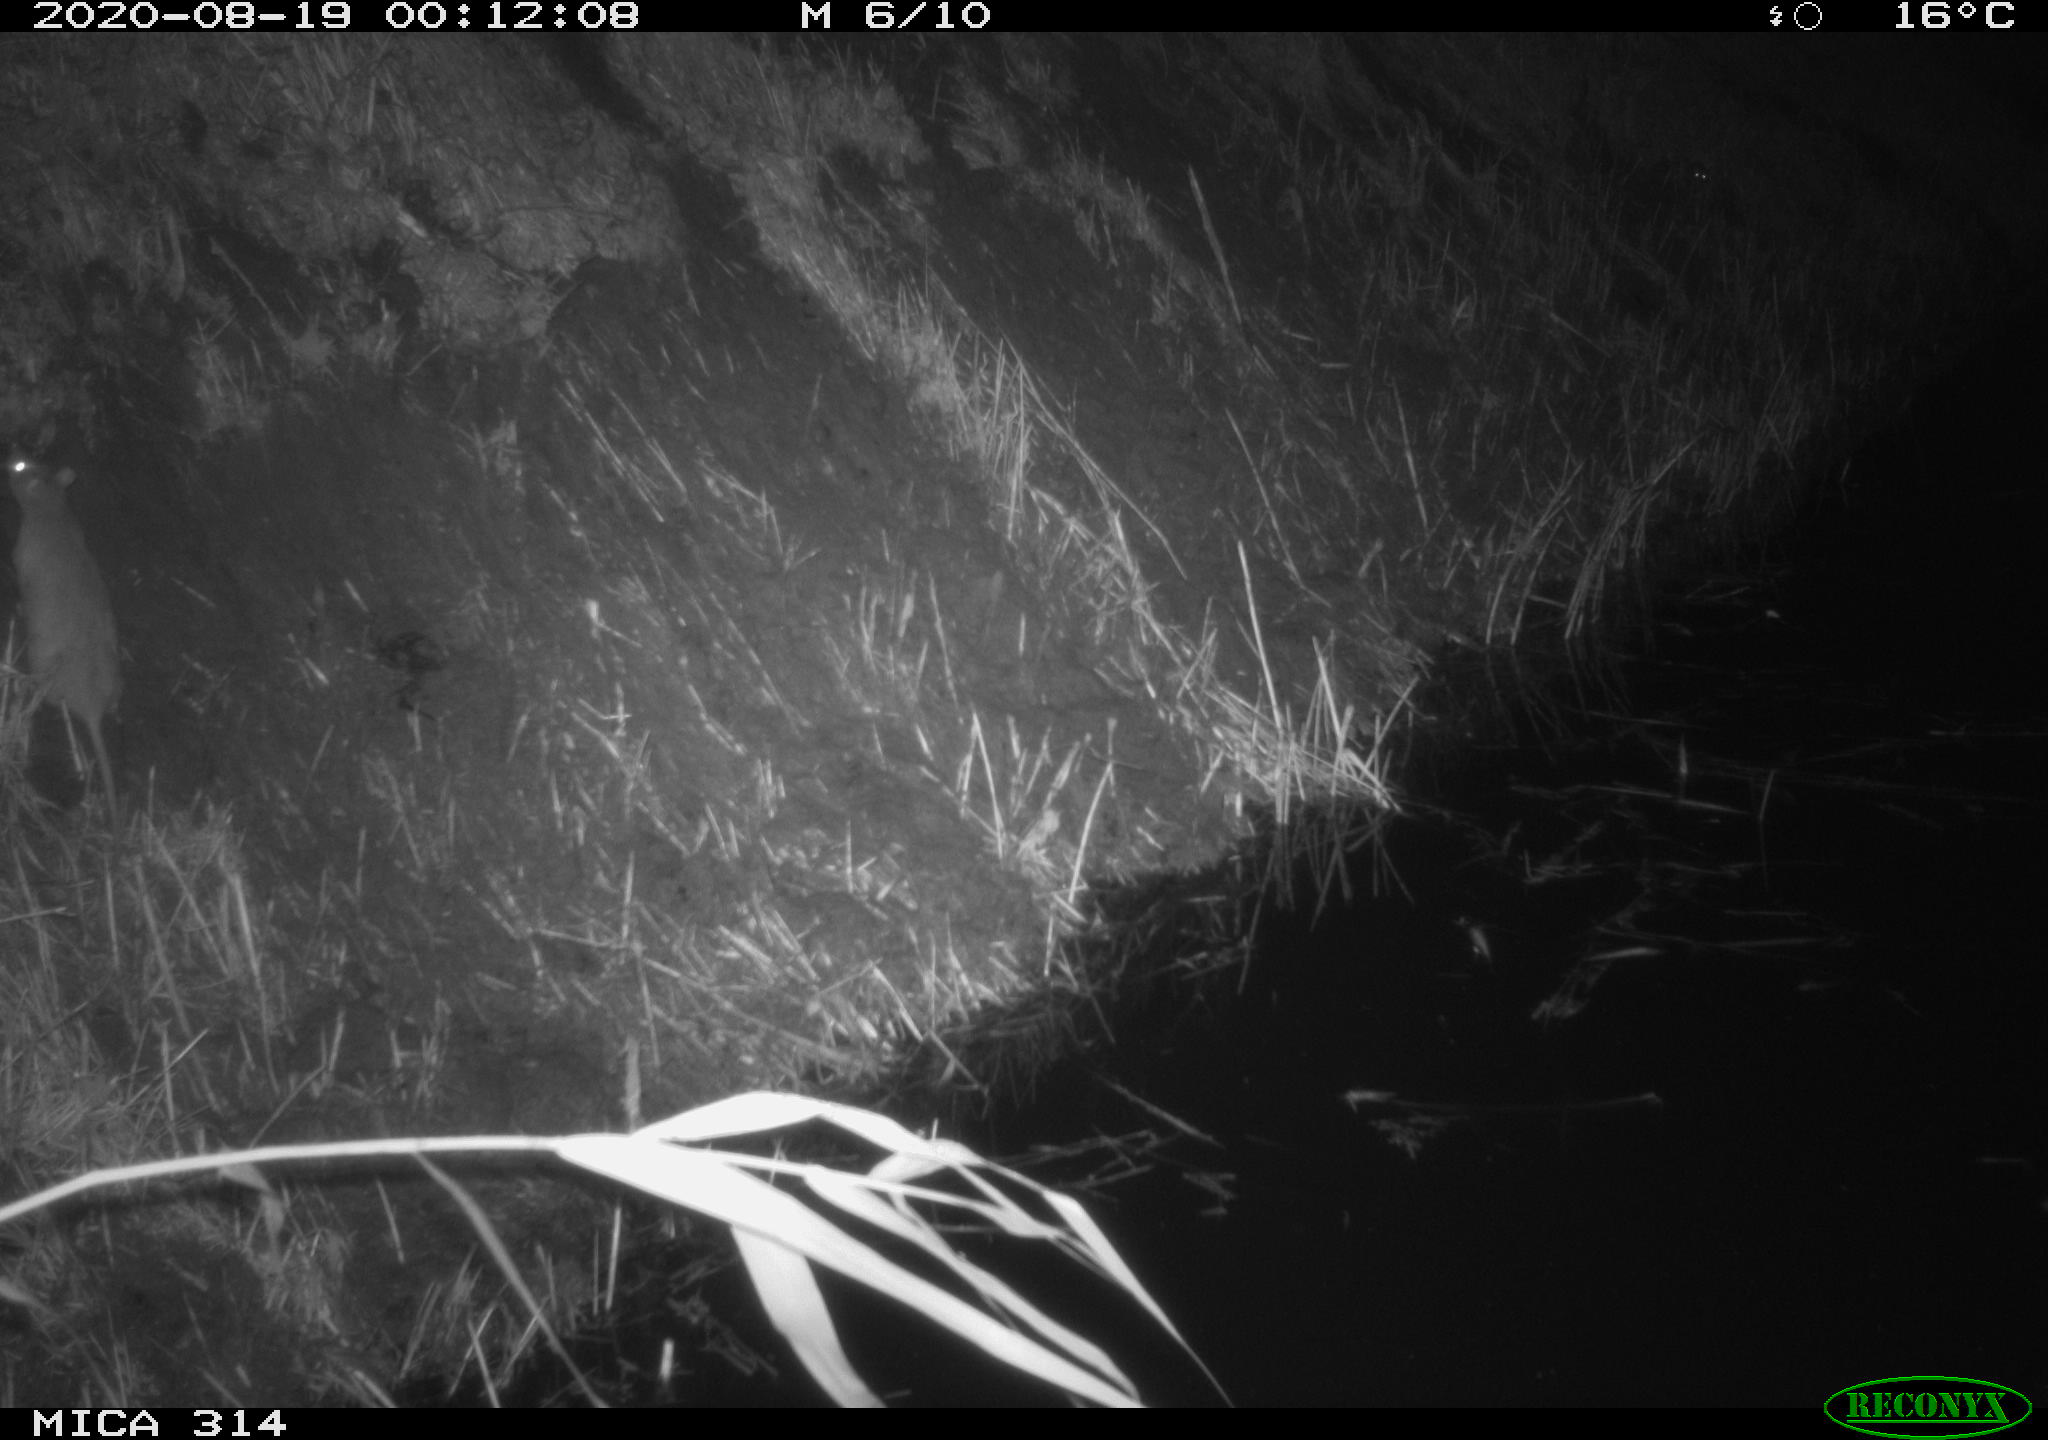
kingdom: Animalia
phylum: Chordata
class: Mammalia
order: Rodentia
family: Muridae
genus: Rattus
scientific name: Rattus norvegicus
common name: Brown rat
